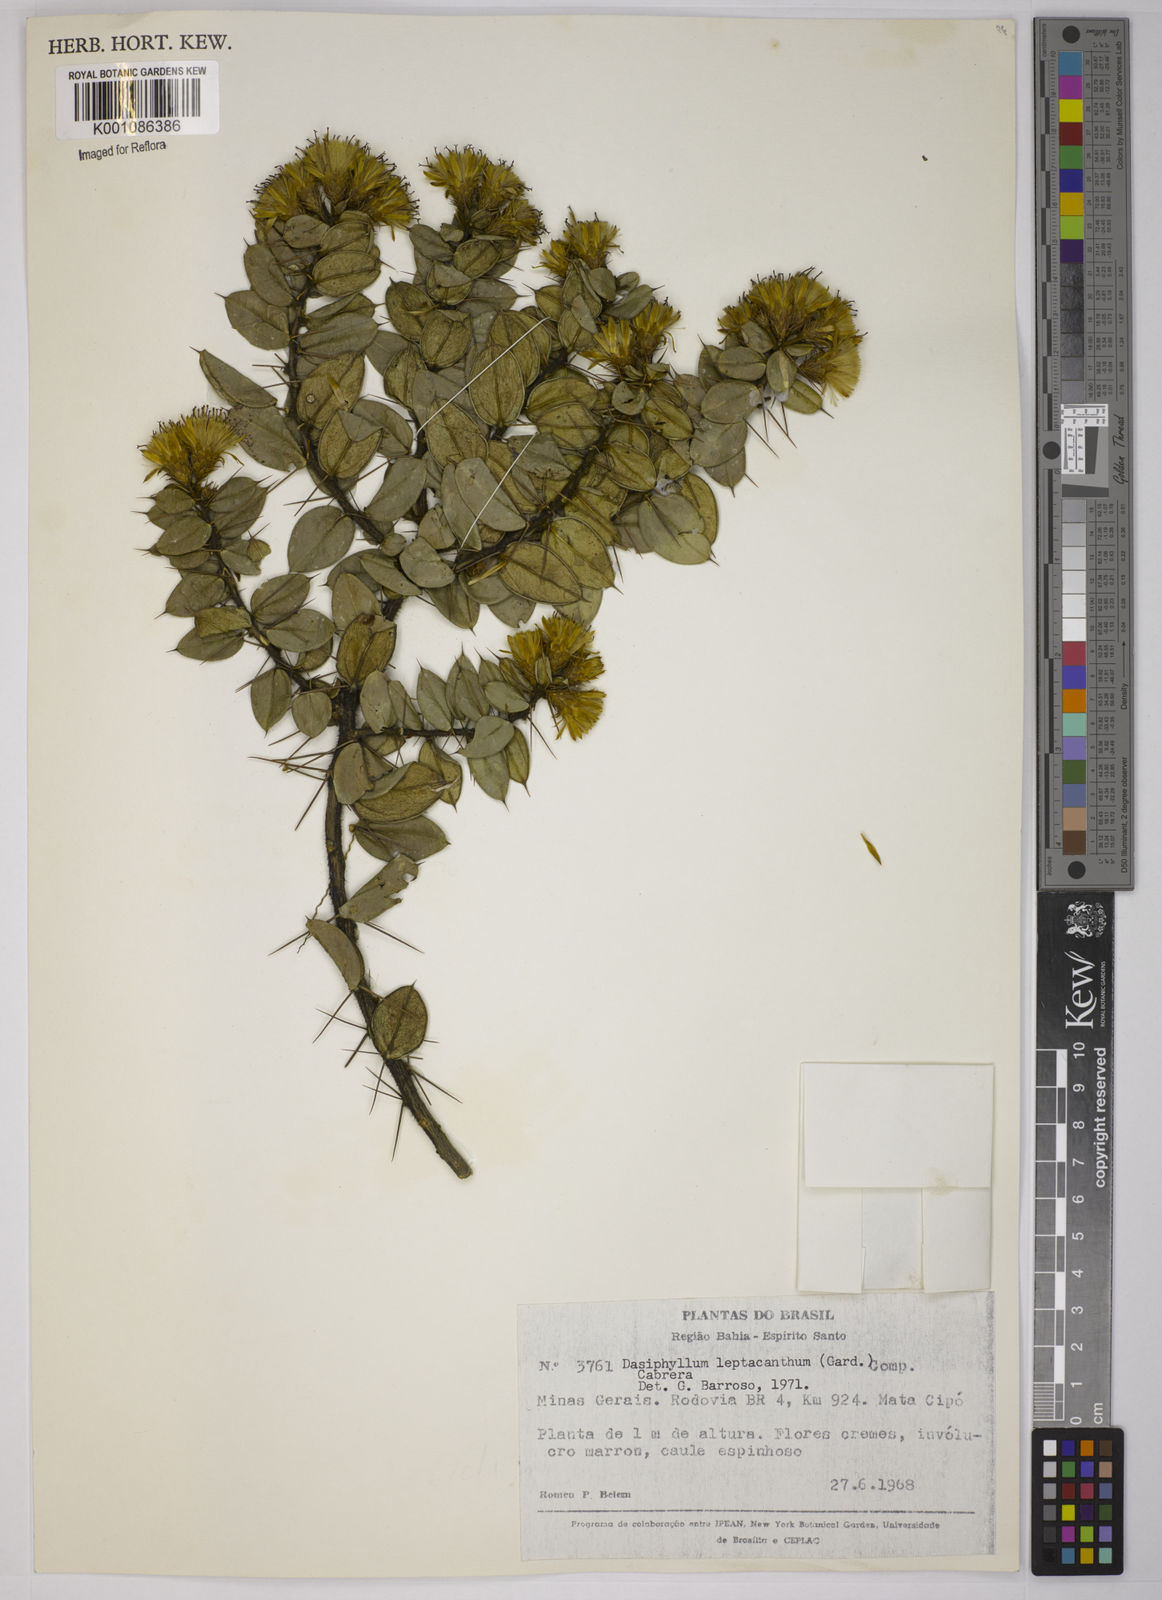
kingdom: Plantae
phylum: Tracheophyta
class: Magnoliopsida
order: Asterales
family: Asteraceae
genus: Dasyphyllum
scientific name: Dasyphyllum leptacanthum
